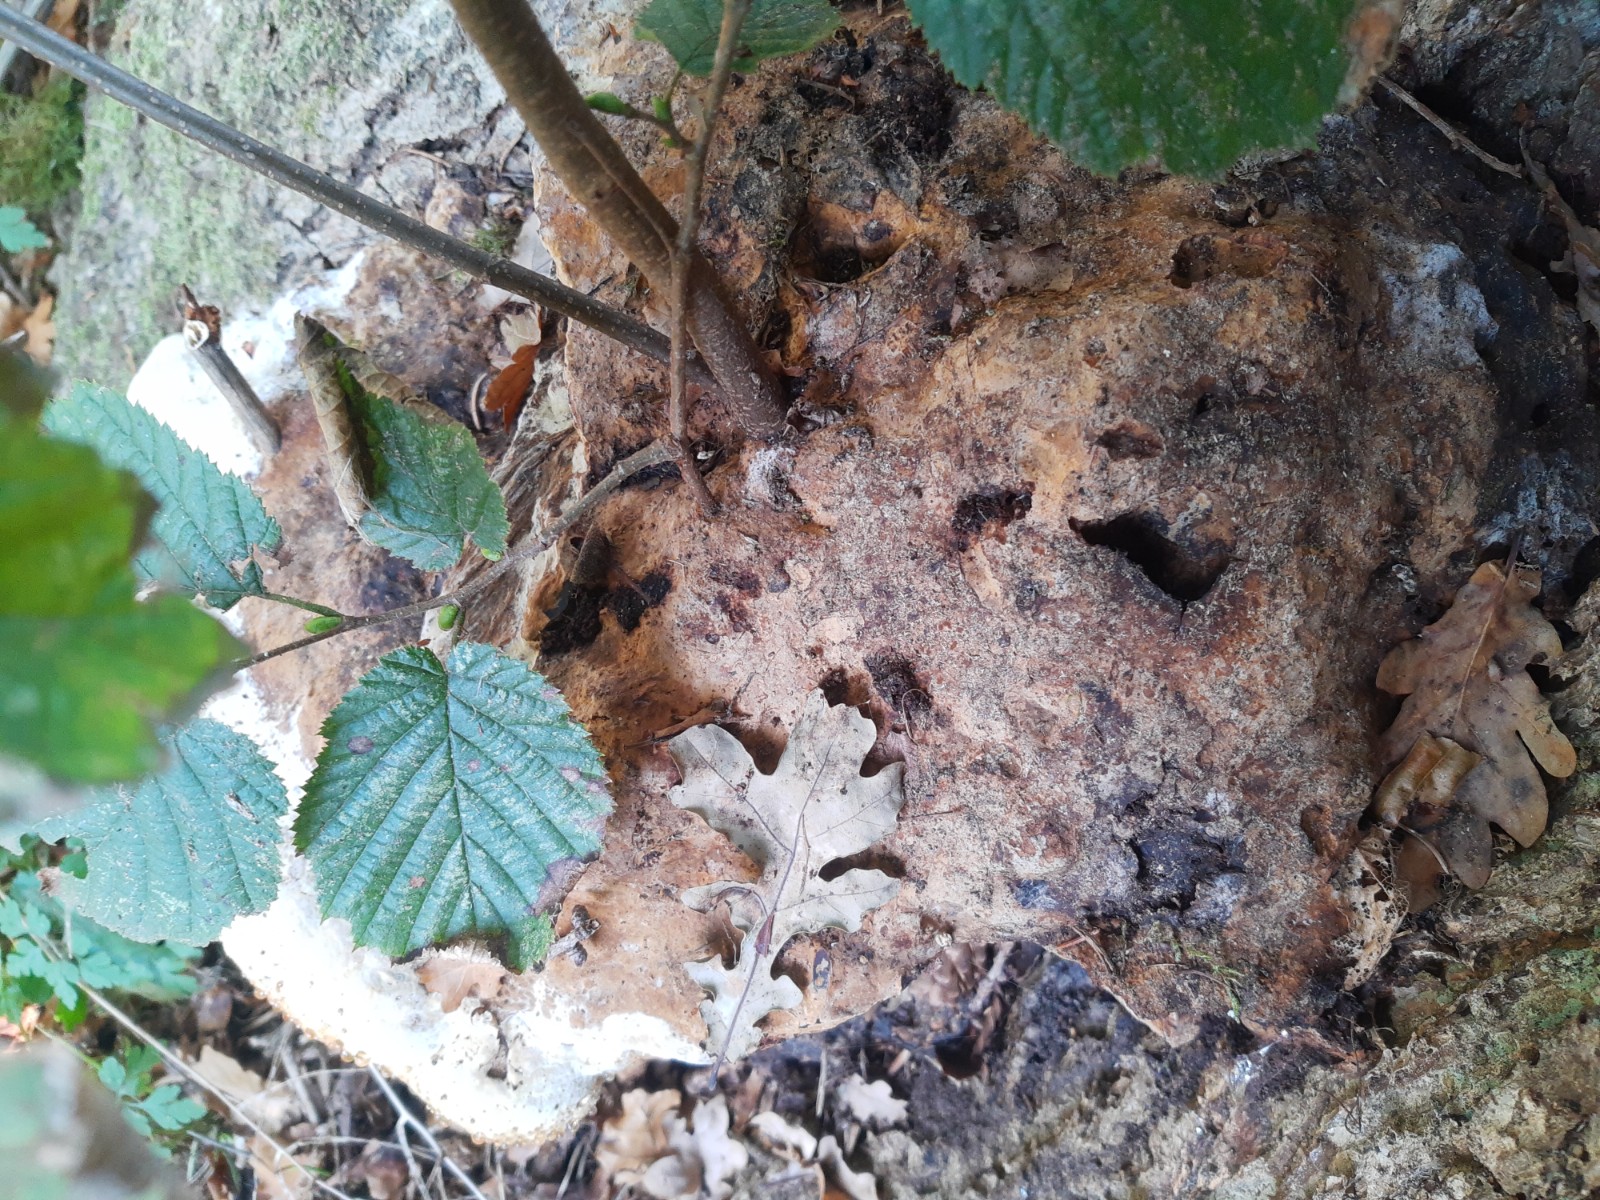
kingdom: Fungi
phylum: Basidiomycota
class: Agaricomycetes
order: Hymenochaetales
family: Hymenochaetaceae
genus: Pseudoinonotus
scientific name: Pseudoinonotus dryadeus
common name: ege-spejlporesvamp
